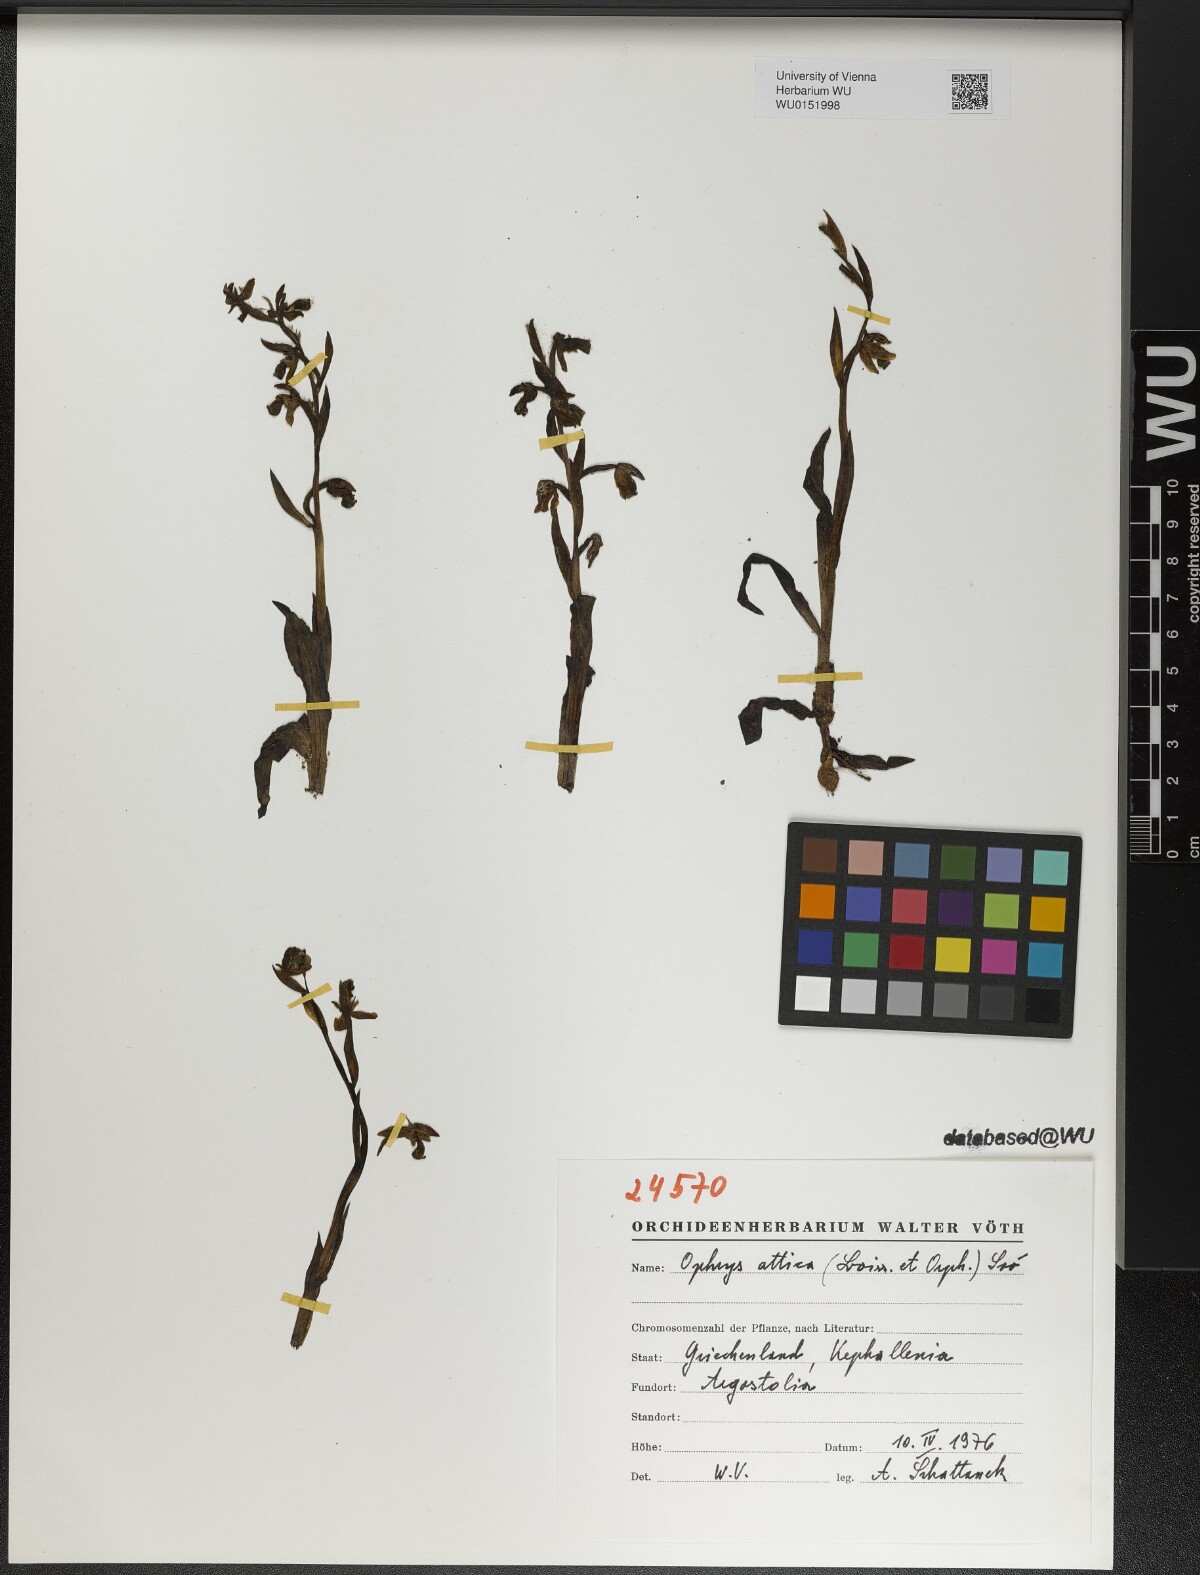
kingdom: Plantae
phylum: Tracheophyta
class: Liliopsida
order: Asparagales
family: Orchidaceae
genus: Ophrys
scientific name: Ophrys umbilicata
